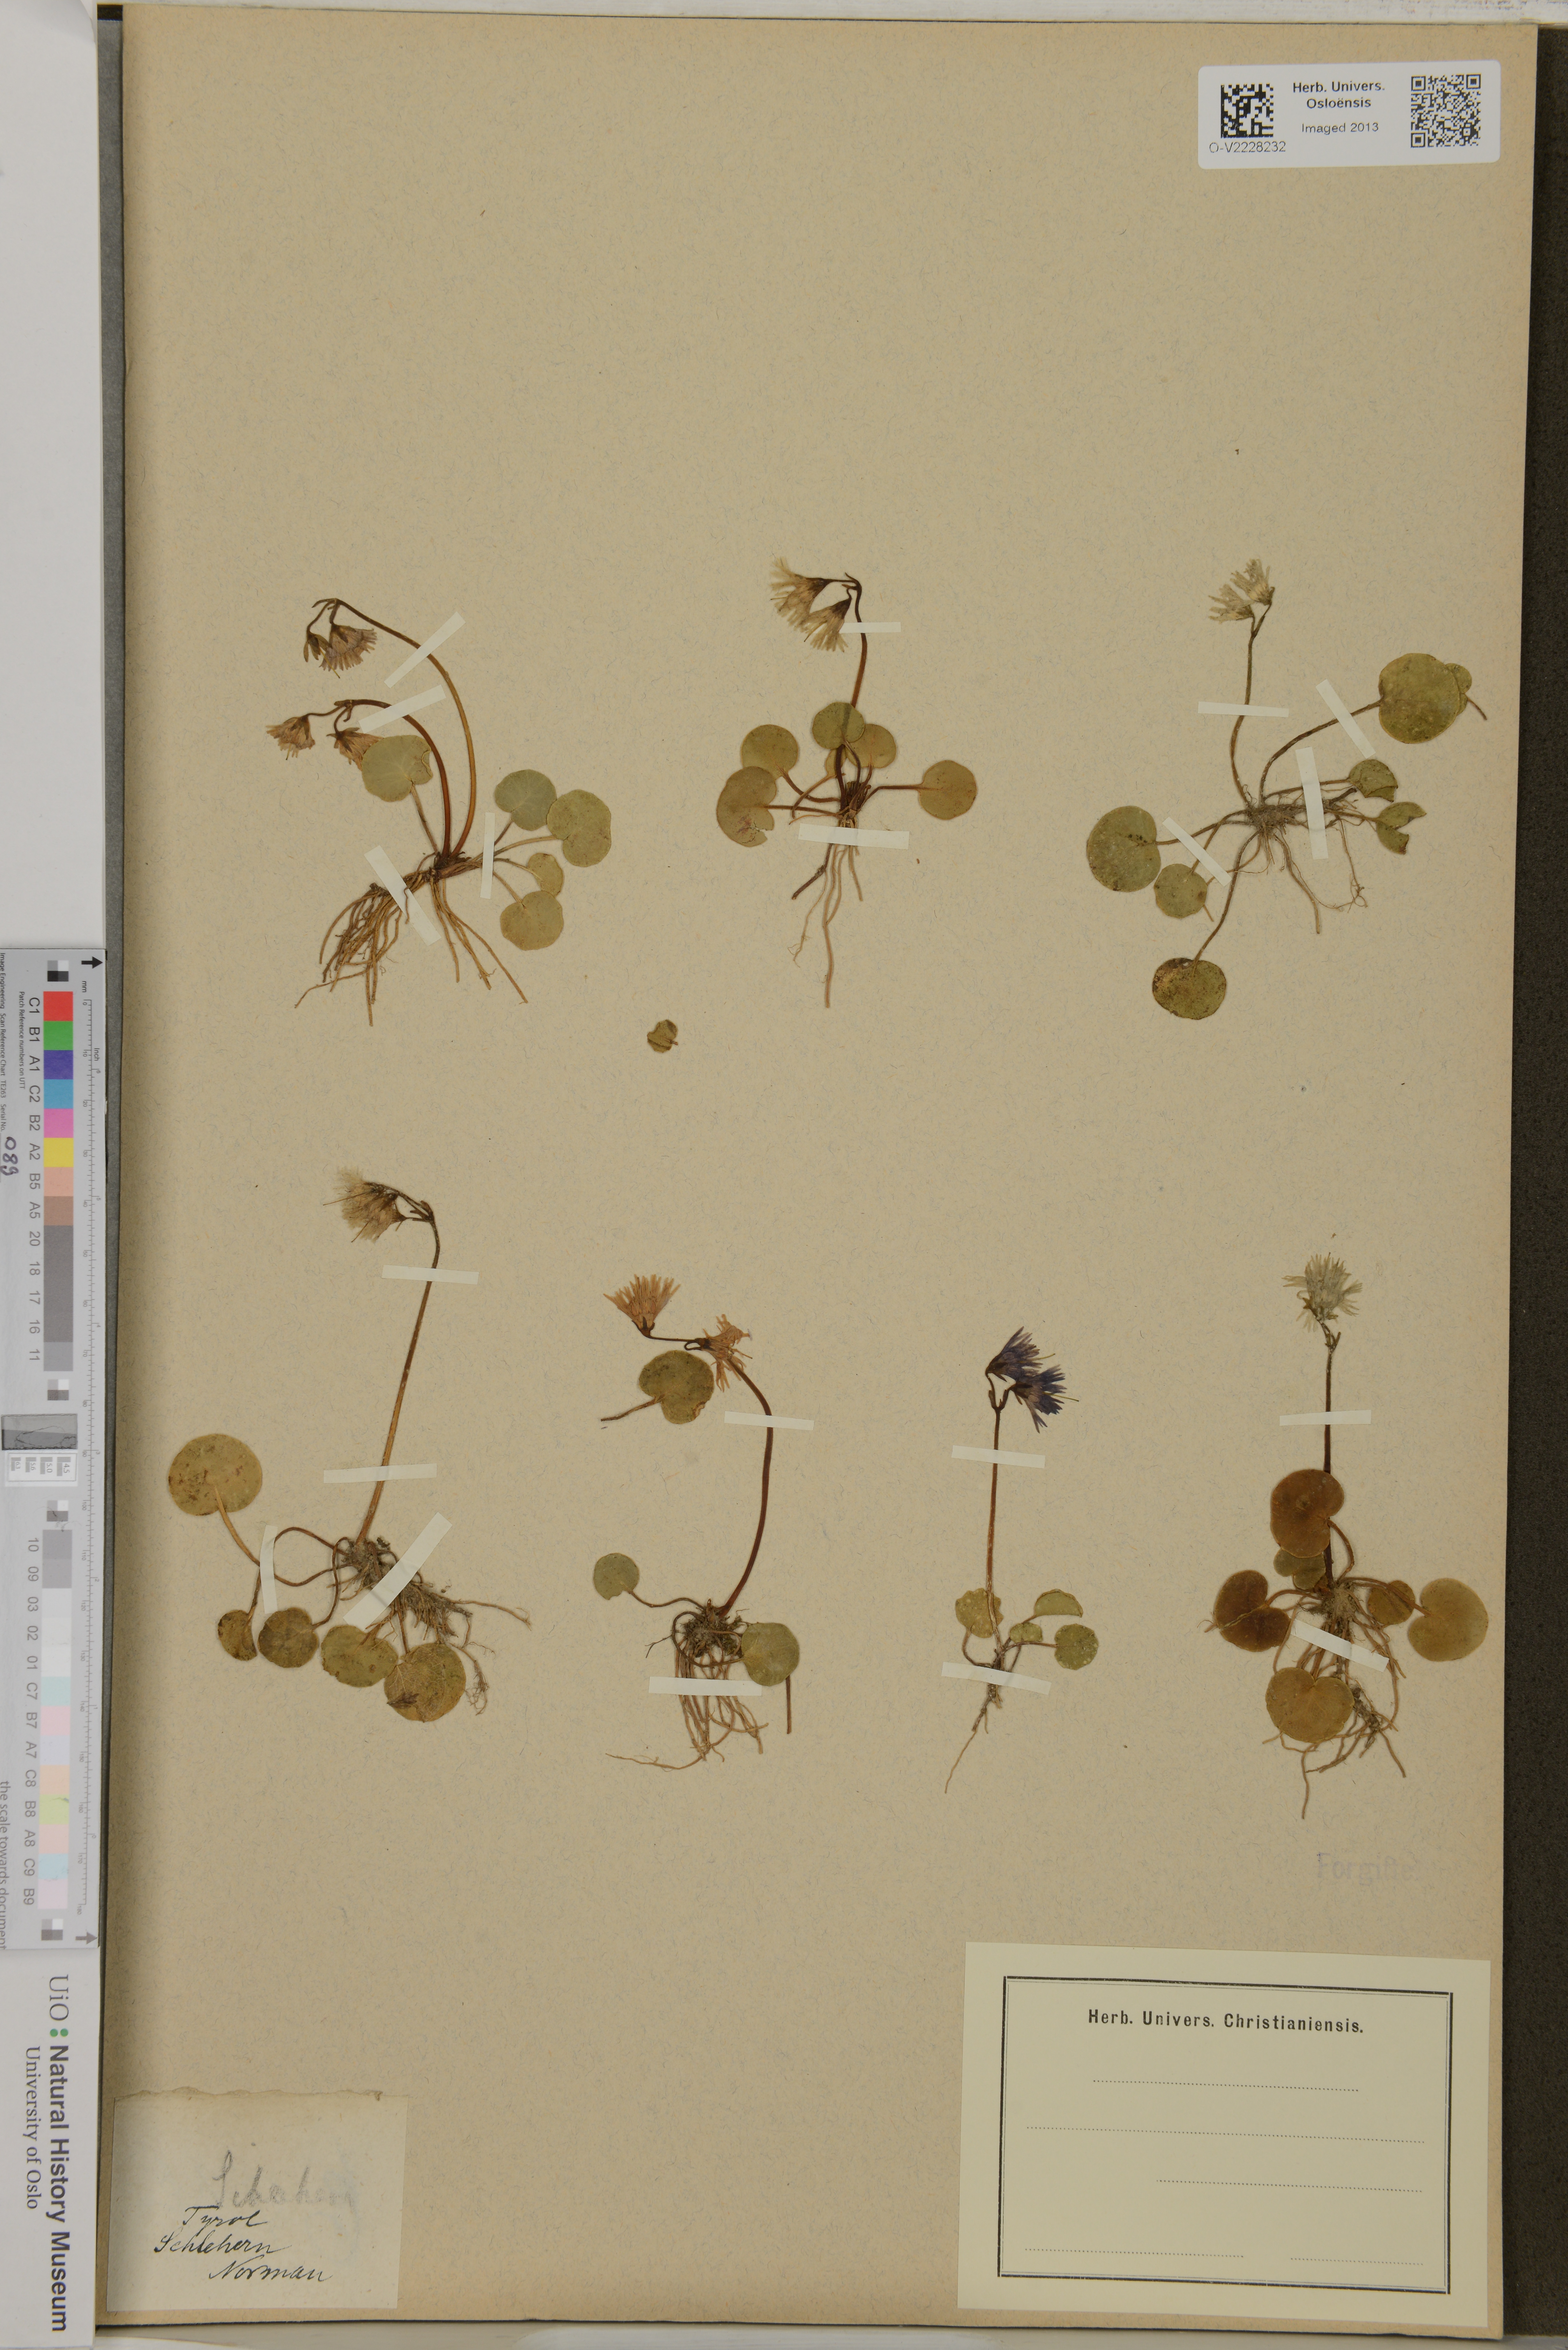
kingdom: Plantae
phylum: Tracheophyta
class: Magnoliopsida
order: Ericales
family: Primulaceae
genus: Soldanella
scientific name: Soldanella
